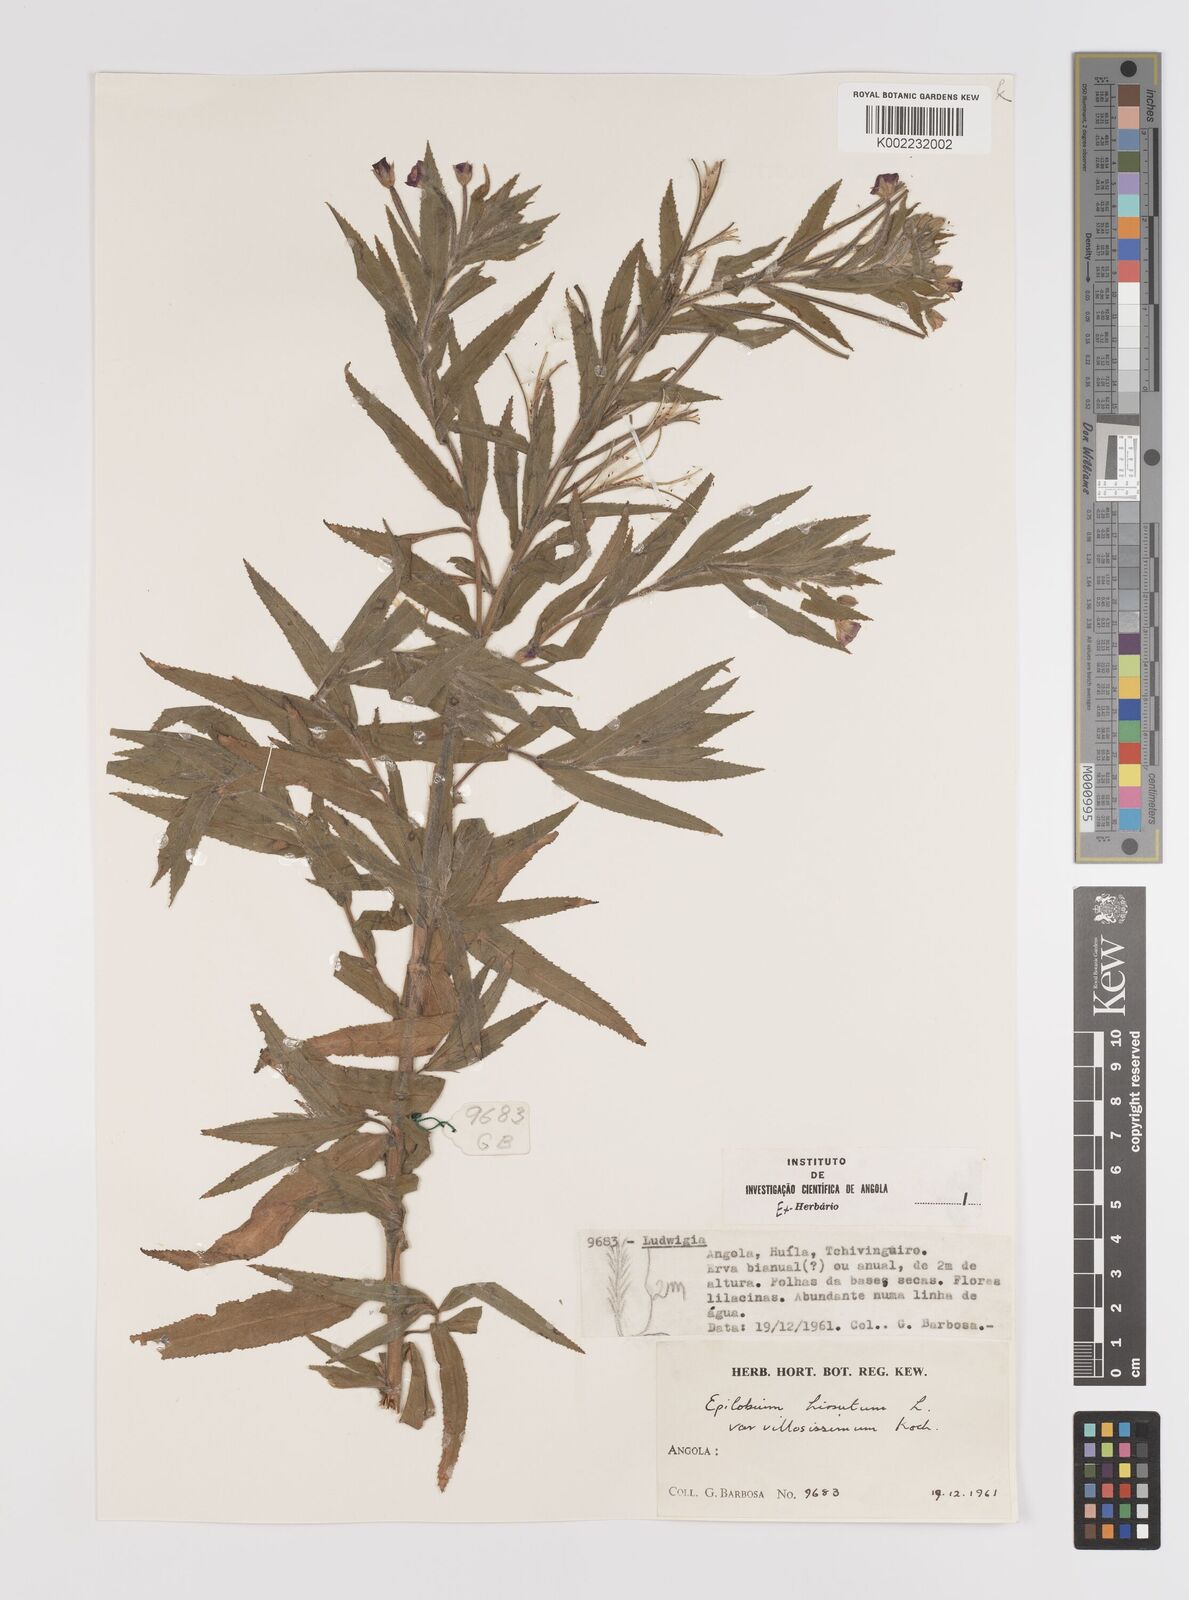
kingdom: Plantae
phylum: Tracheophyta
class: Magnoliopsida
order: Myrtales
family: Onagraceae
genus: Epilobium
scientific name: Epilobium hirsutum
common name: Great willowherb
